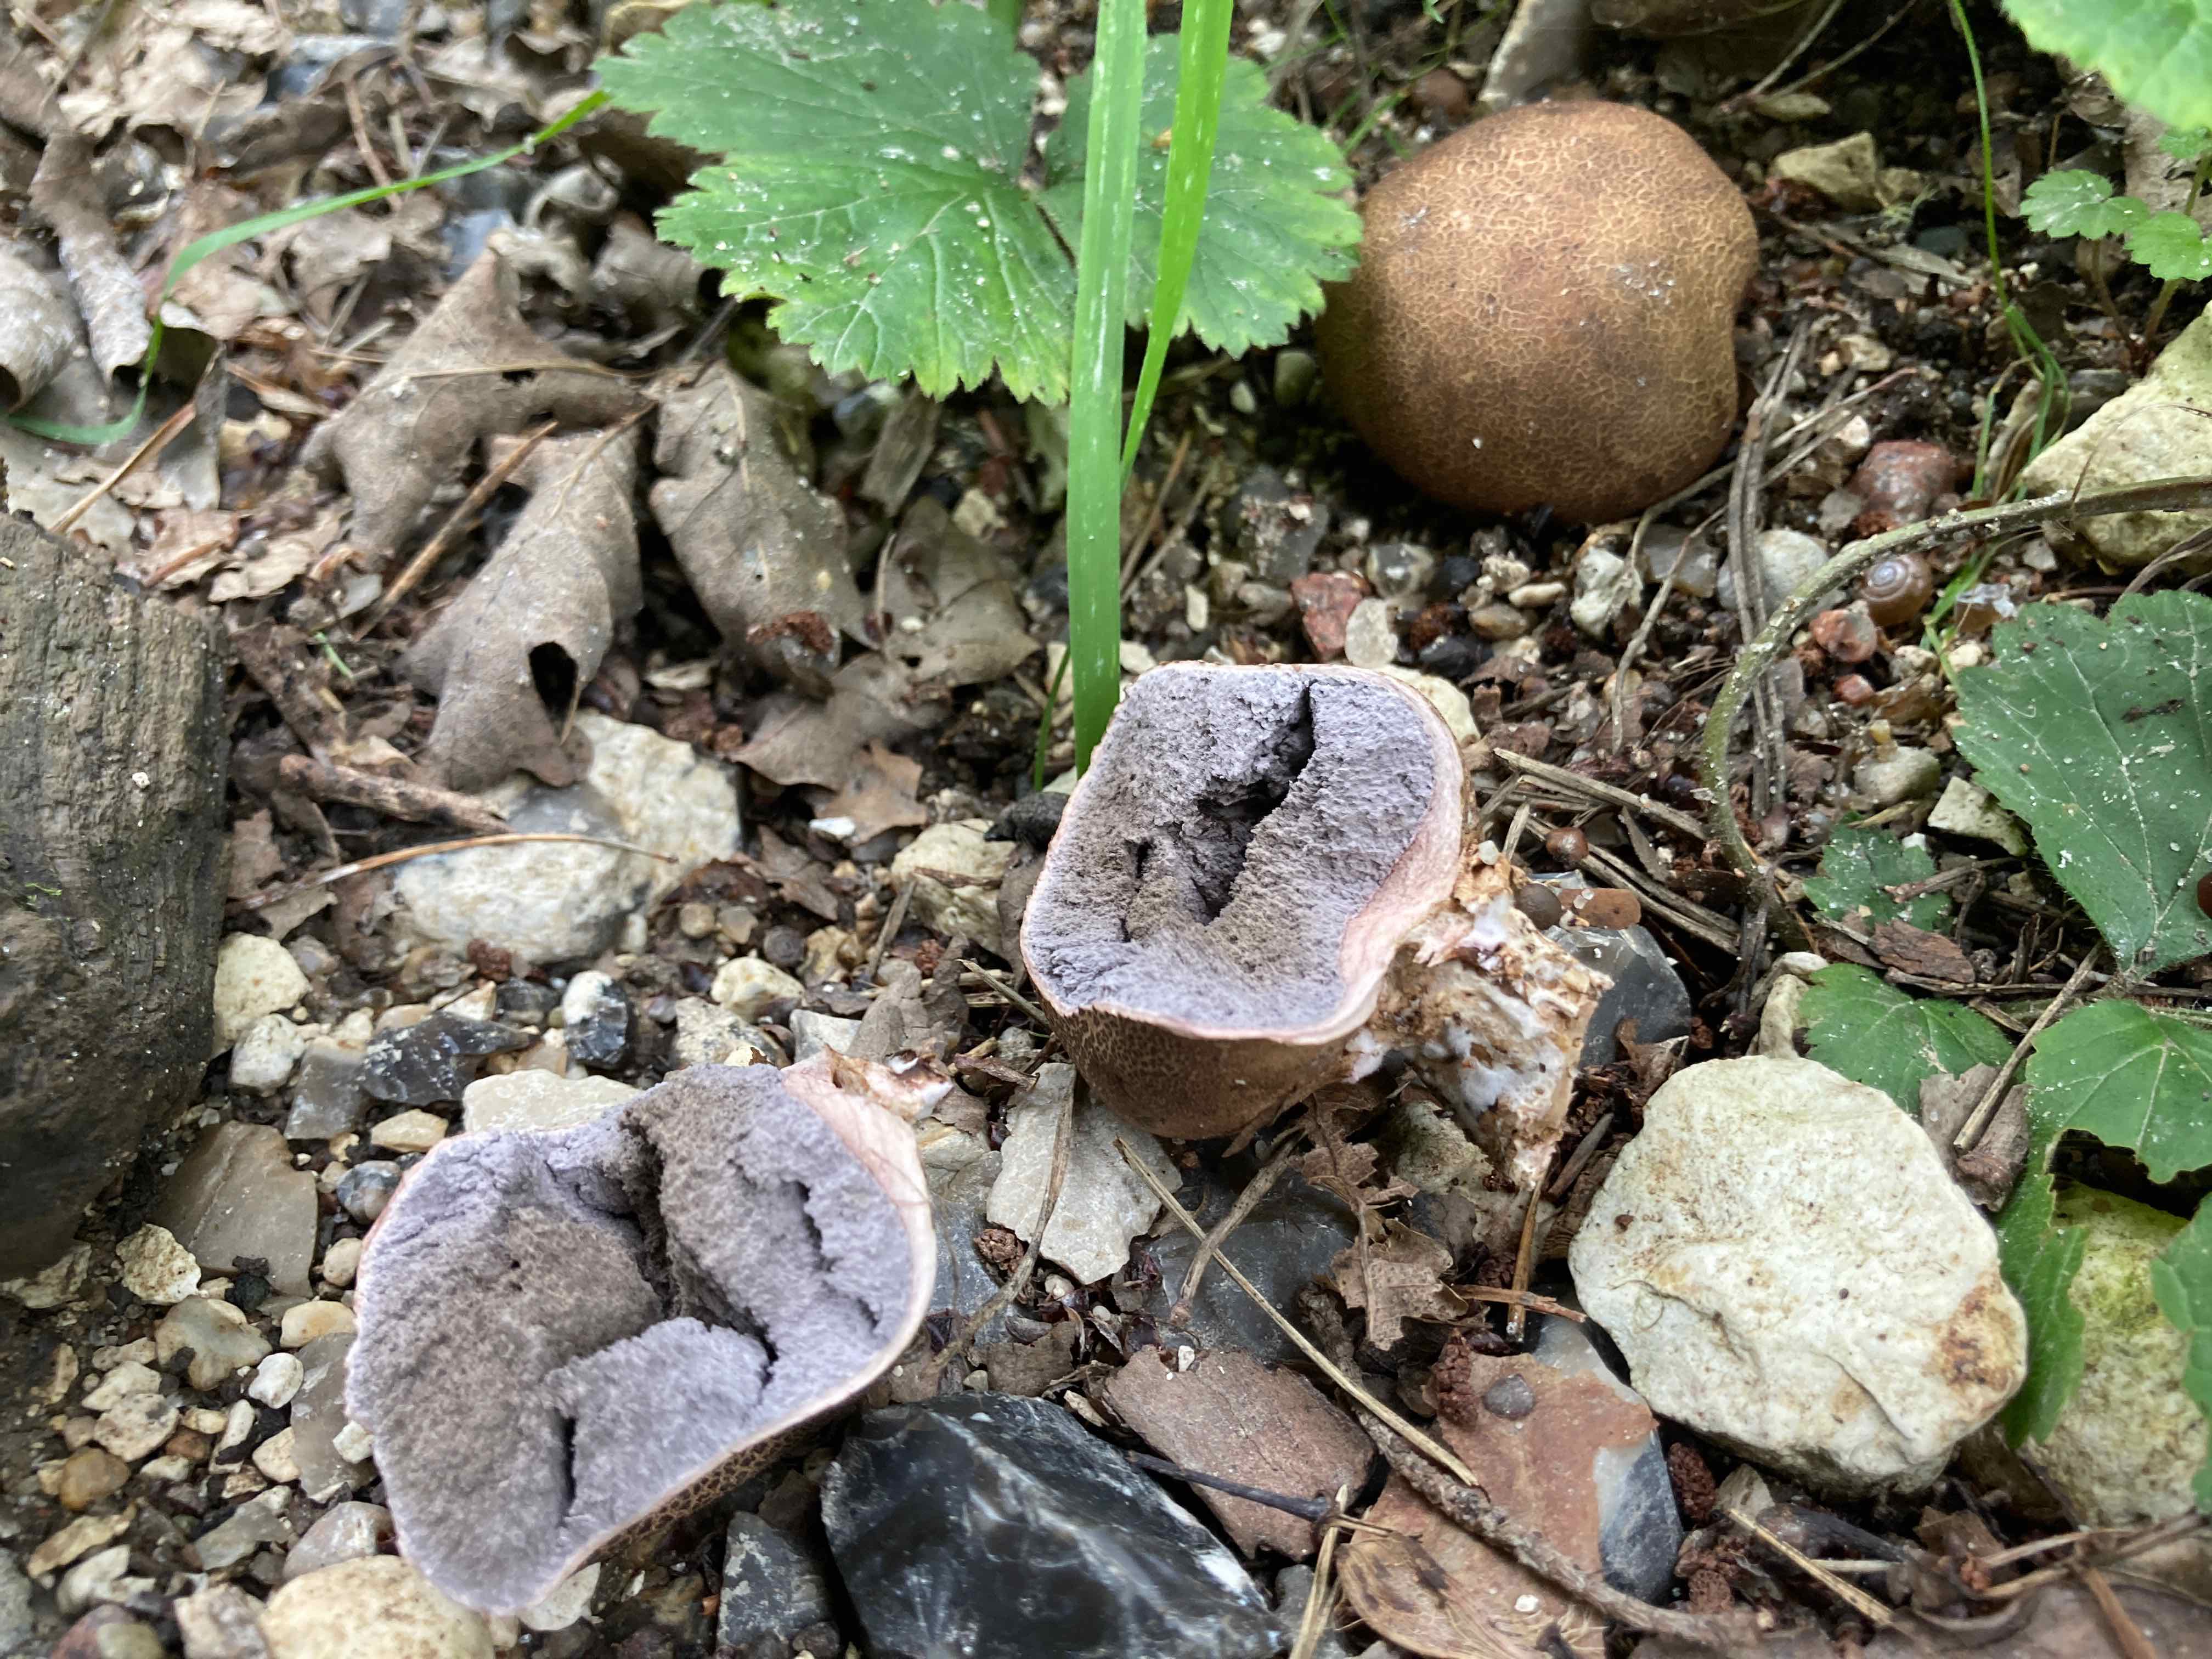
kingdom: Fungi
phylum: Basidiomycota
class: Agaricomycetes
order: Boletales
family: Sclerodermataceae
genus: Scleroderma
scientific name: Scleroderma
